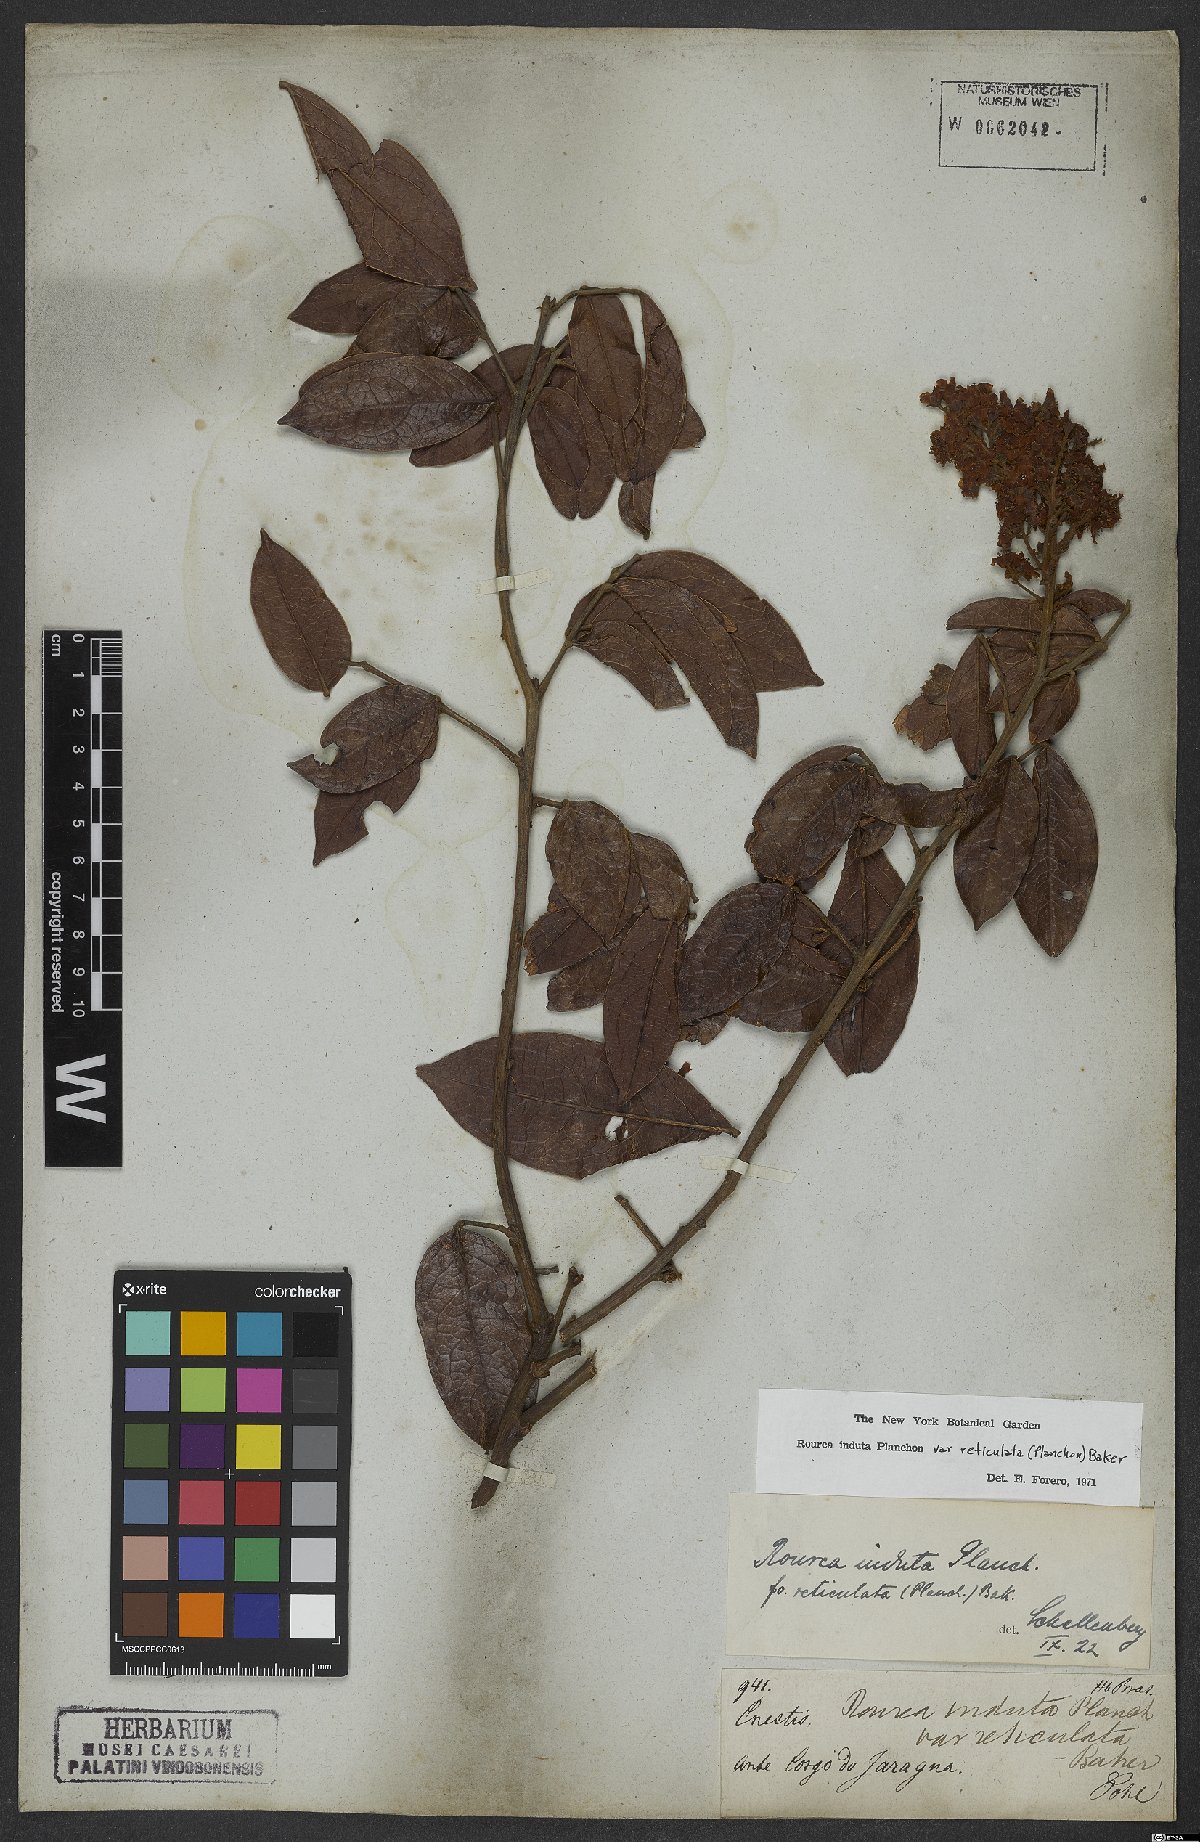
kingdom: Plantae
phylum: Tracheophyta
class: Magnoliopsida
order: Oxalidales
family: Connaraceae
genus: Rourea
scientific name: Rourea induta
